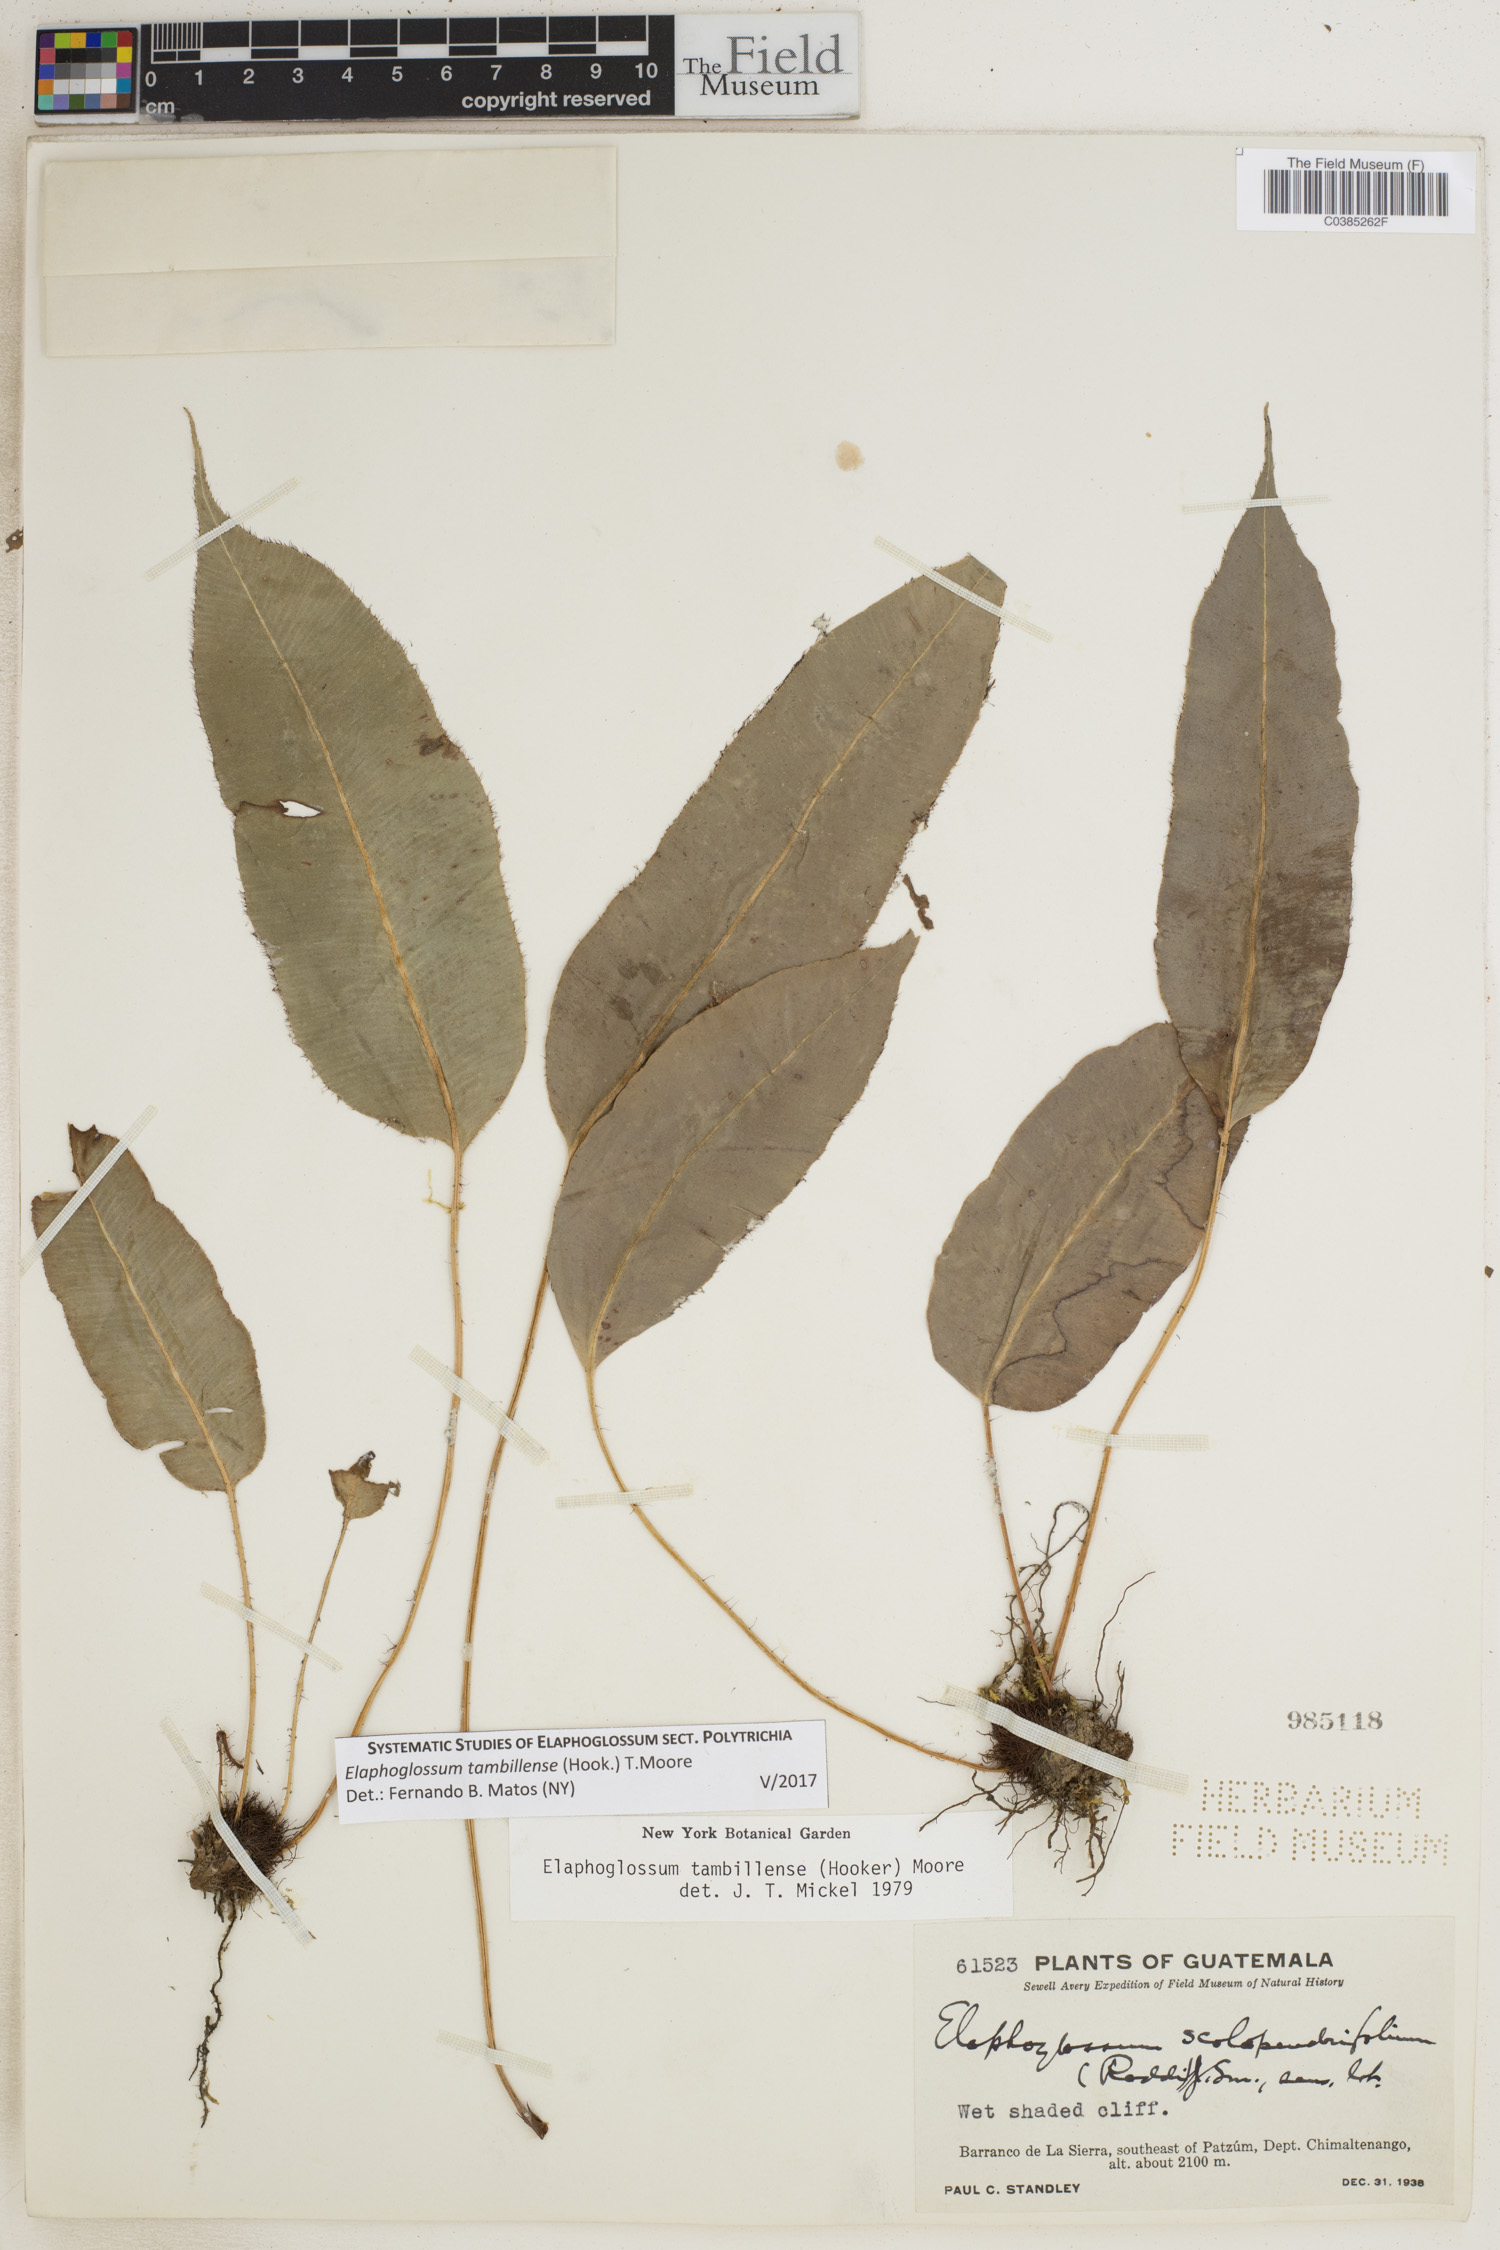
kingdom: Plantae
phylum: Tracheophyta
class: Polypodiopsida
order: Polypodiales
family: Dryopteridaceae
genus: Elaphoglossum
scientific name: Elaphoglossum tambillense
